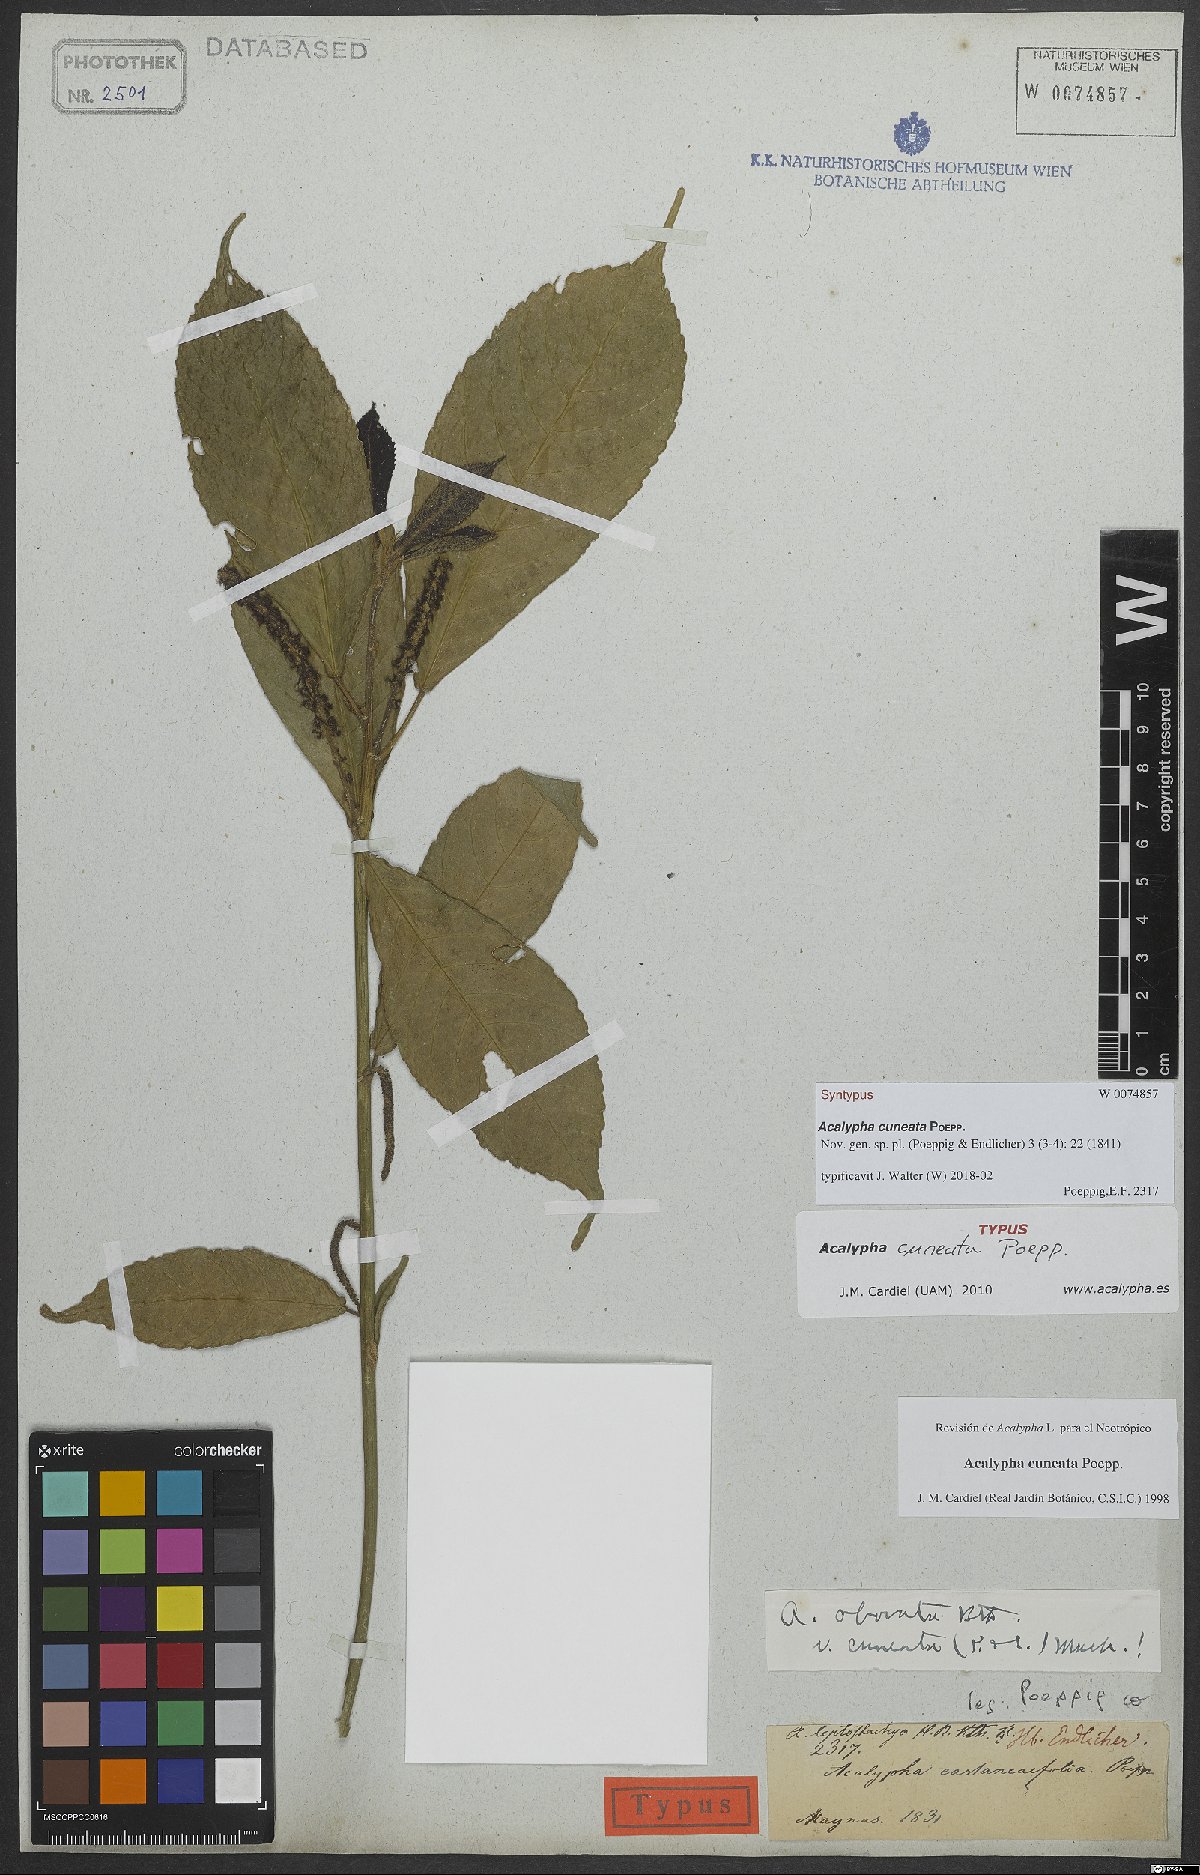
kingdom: Plantae
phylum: Tracheophyta
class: Magnoliopsida
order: Malpighiales
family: Euphorbiaceae
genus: Acalypha
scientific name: Acalypha cuneata
